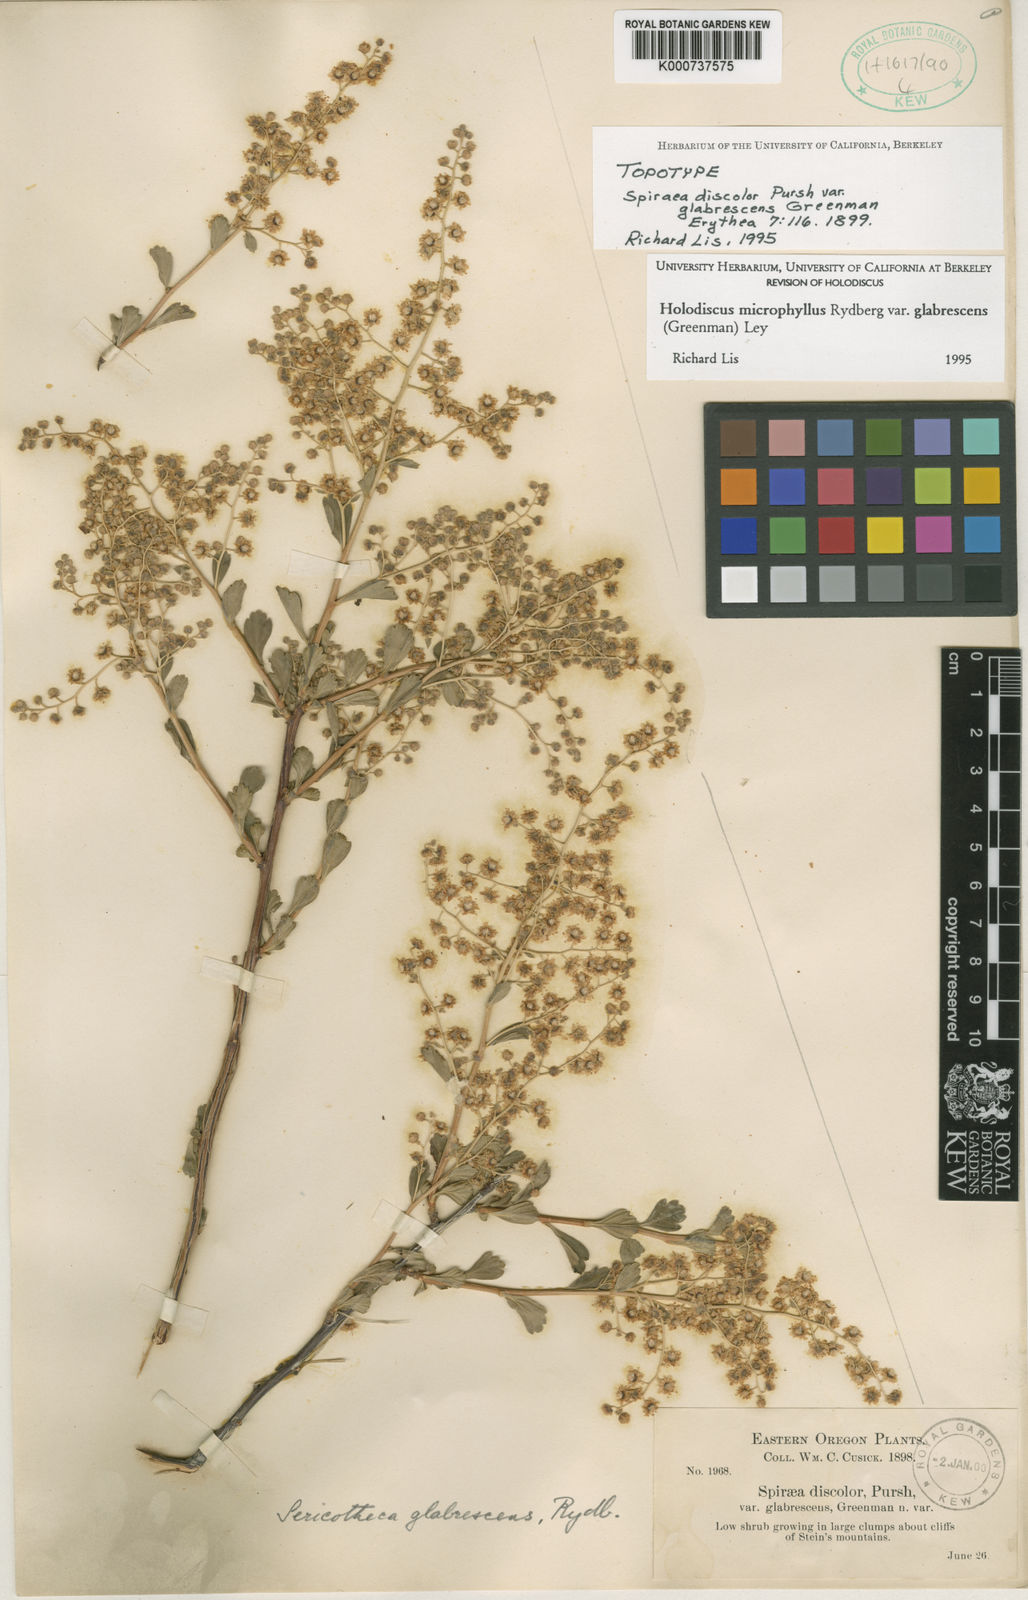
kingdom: Plantae
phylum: Tracheophyta
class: Magnoliopsida
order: Rosales
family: Rosaceae
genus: Holodiscus
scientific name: Holodiscus discolor
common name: Oceanspray
